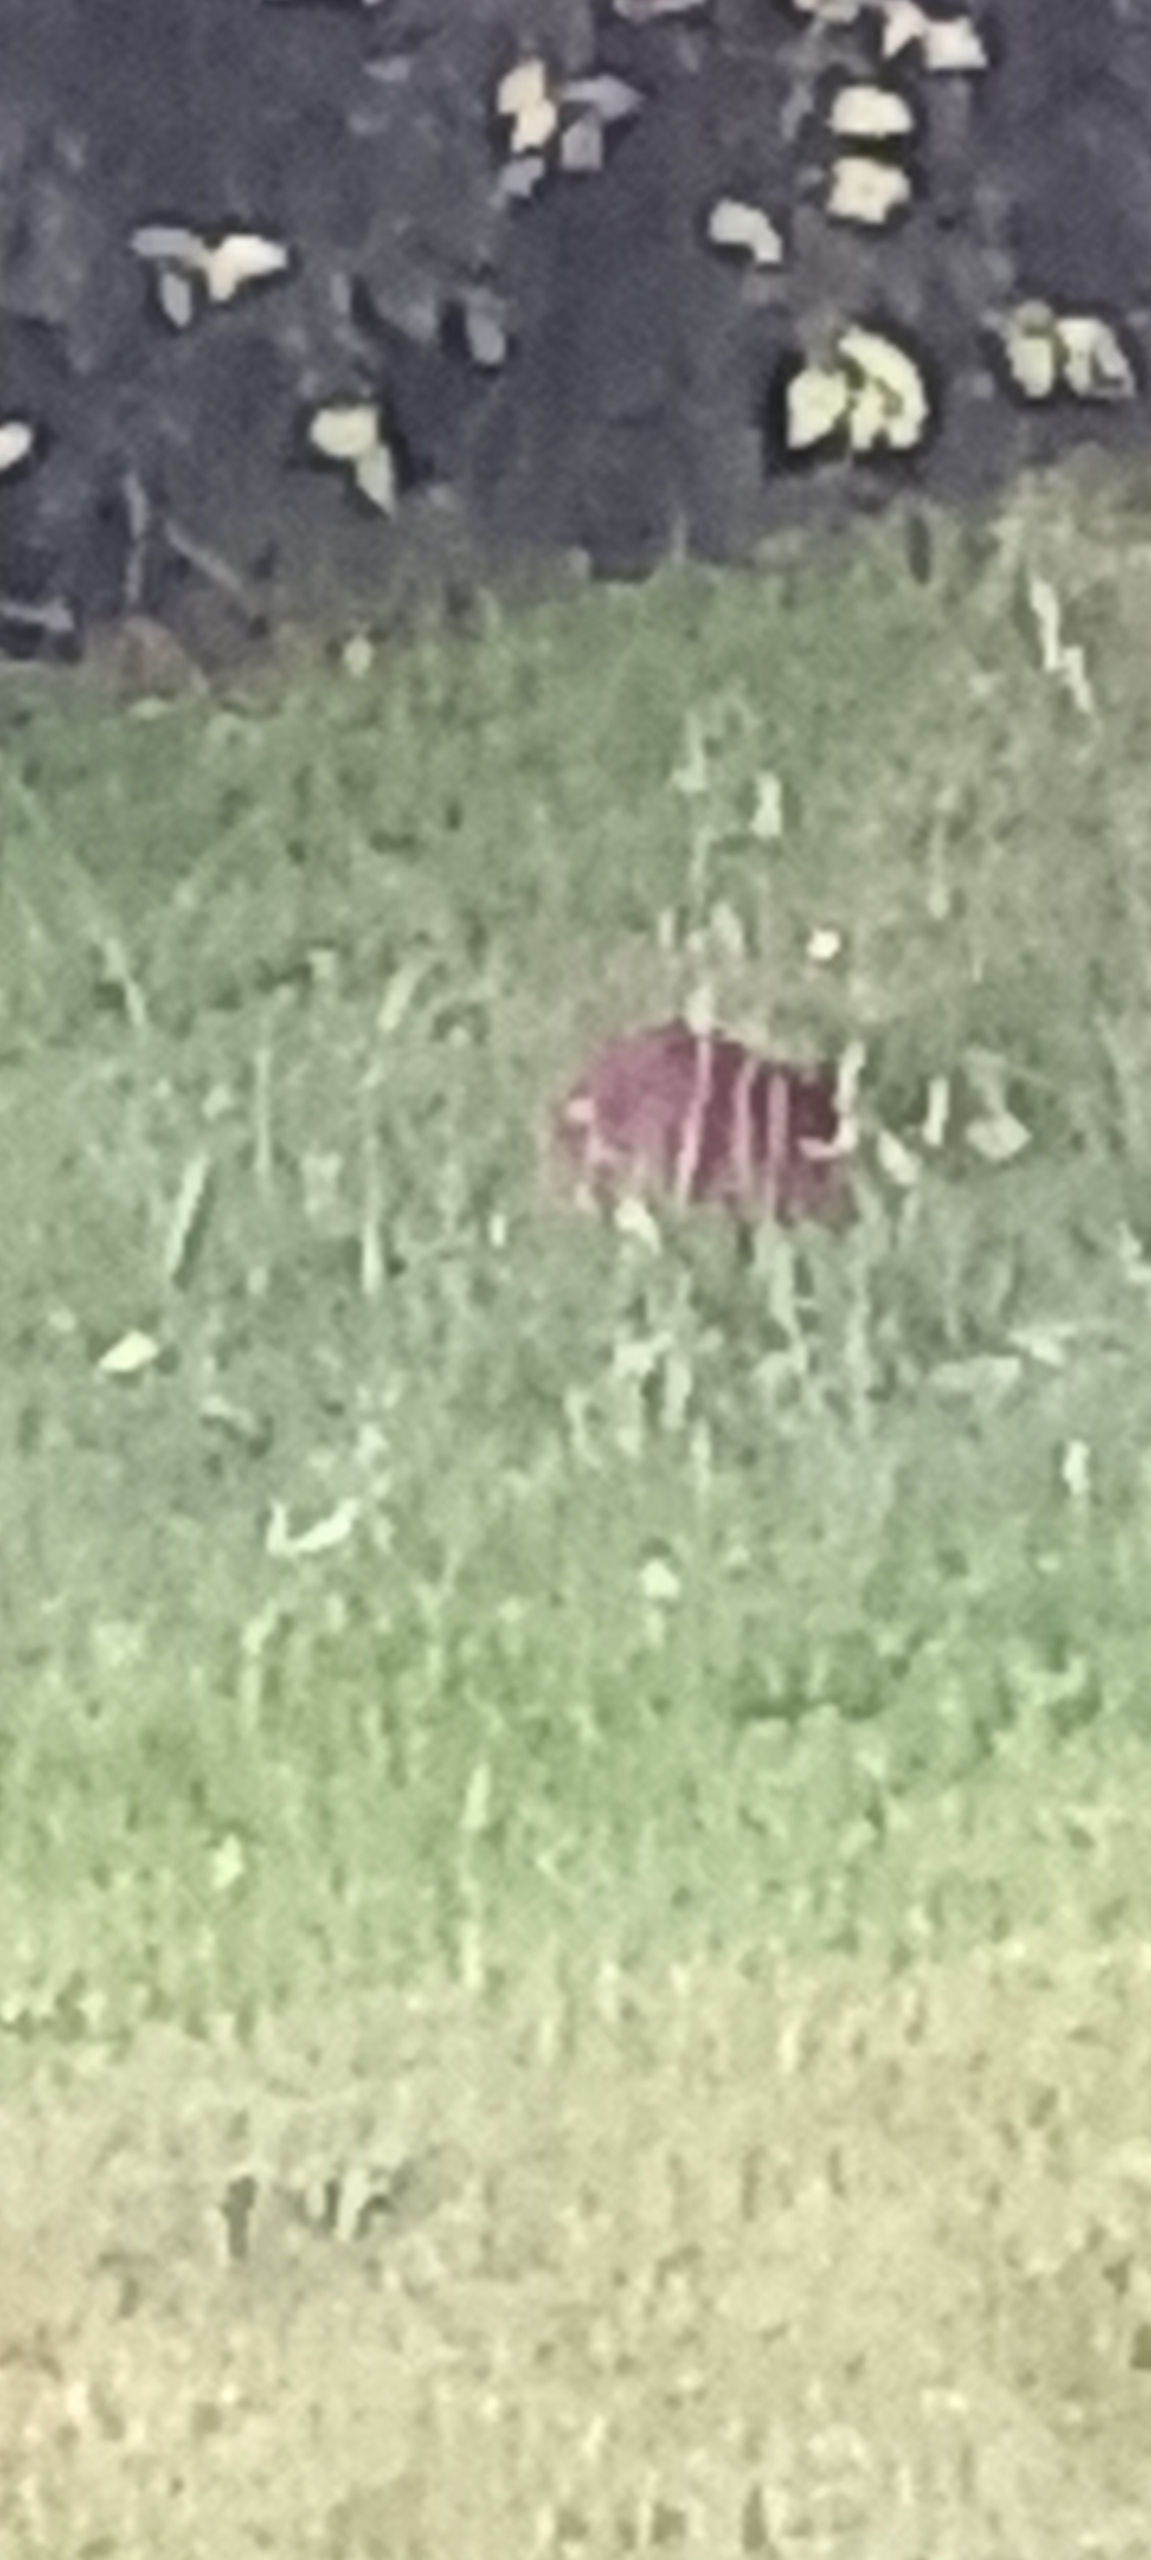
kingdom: Animalia
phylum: Chordata
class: Mammalia
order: Erinaceomorpha
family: Erinaceidae
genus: Erinaceus
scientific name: Erinaceus europaeus
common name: Pindsvin
